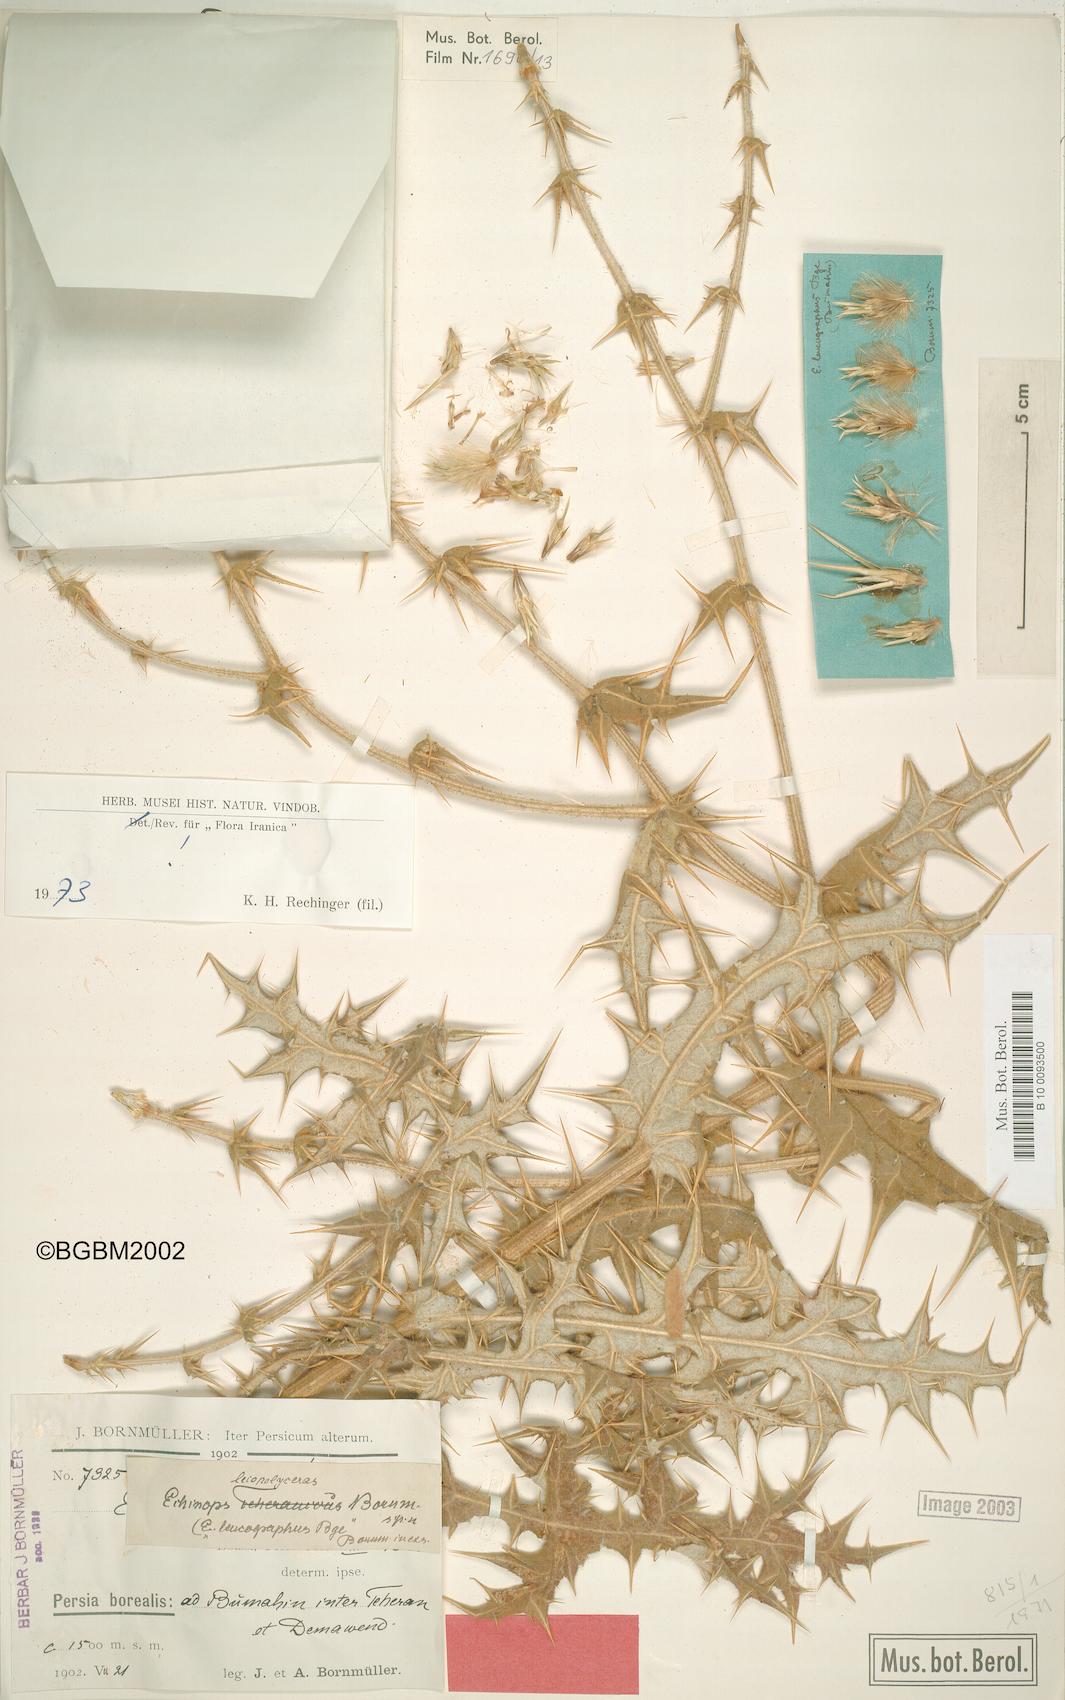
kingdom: Plantae
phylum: Tracheophyta
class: Magnoliopsida
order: Asterales
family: Asteraceae
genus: Echinops
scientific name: Echinops leiopolyceras
